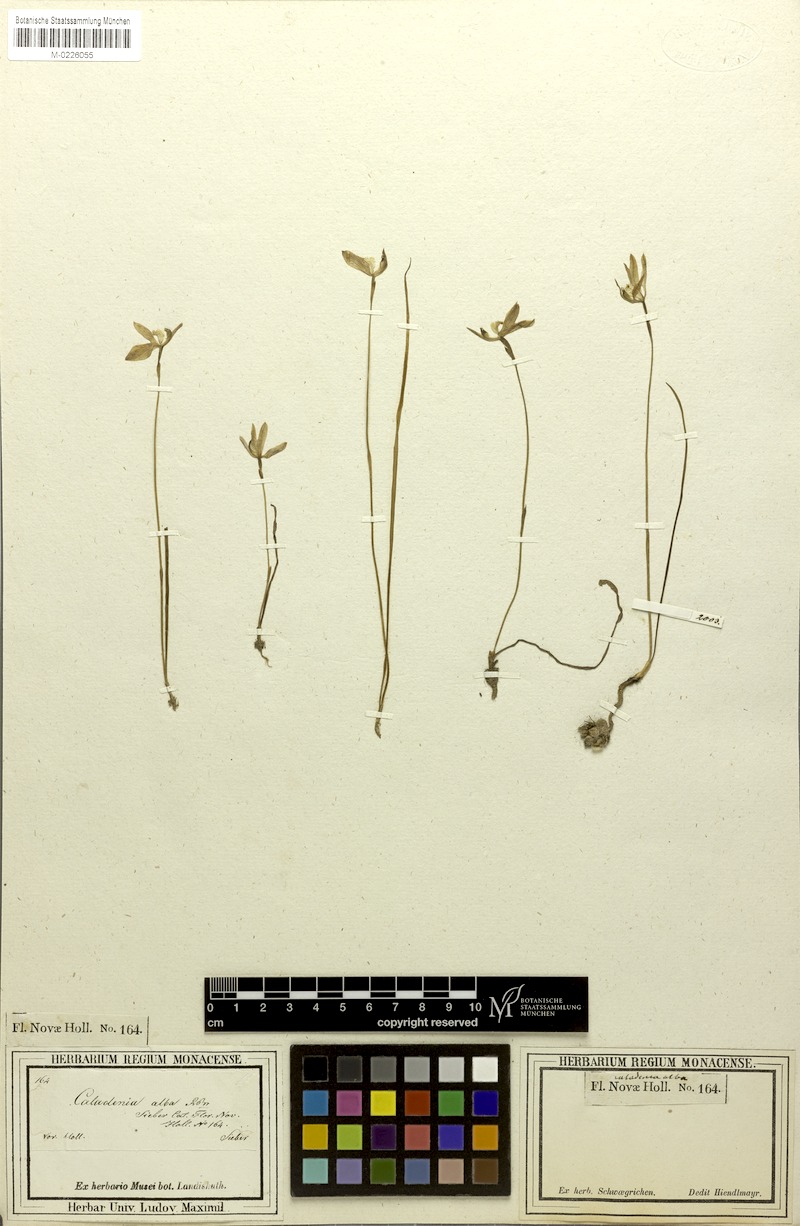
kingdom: Plantae
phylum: Tracheophyta
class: Liliopsida
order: Asparagales
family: Orchidaceae
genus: Caladenia
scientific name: Caladenia alata
